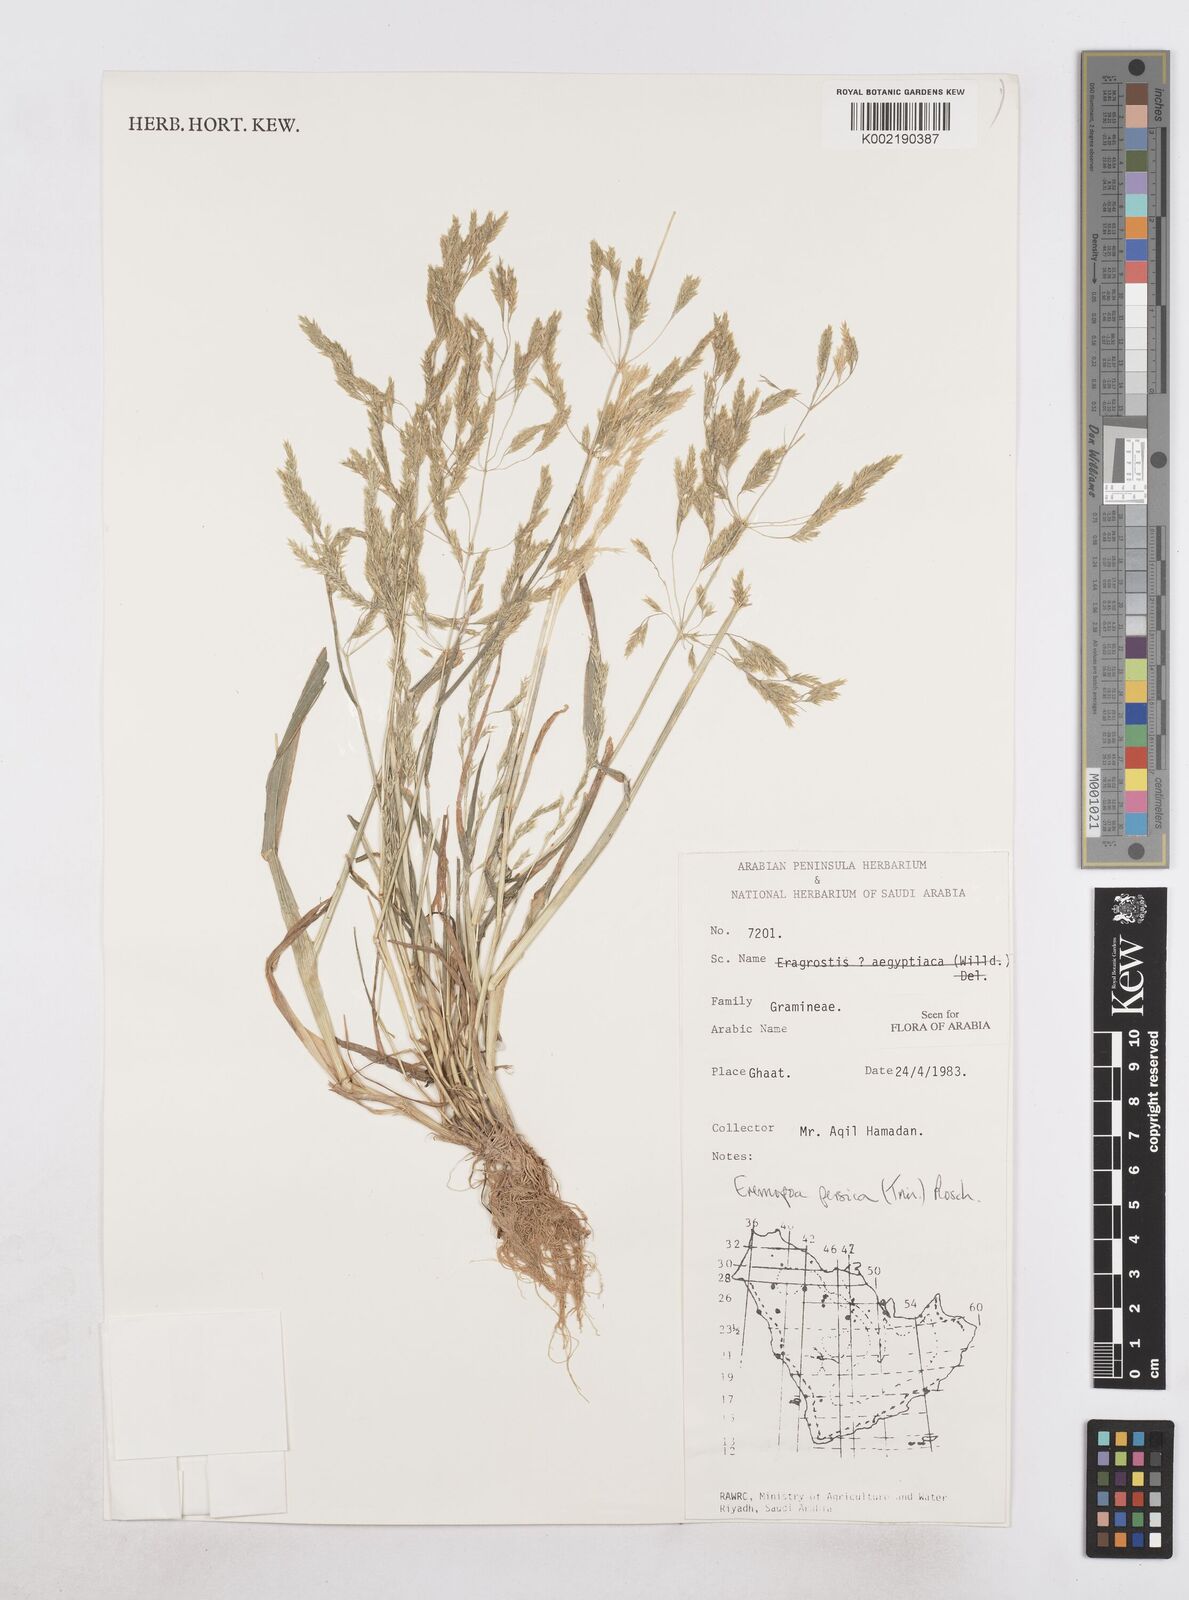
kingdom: Plantae
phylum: Tracheophyta
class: Liliopsida
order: Poales
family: Poaceae
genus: Poa
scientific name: Poa persica
